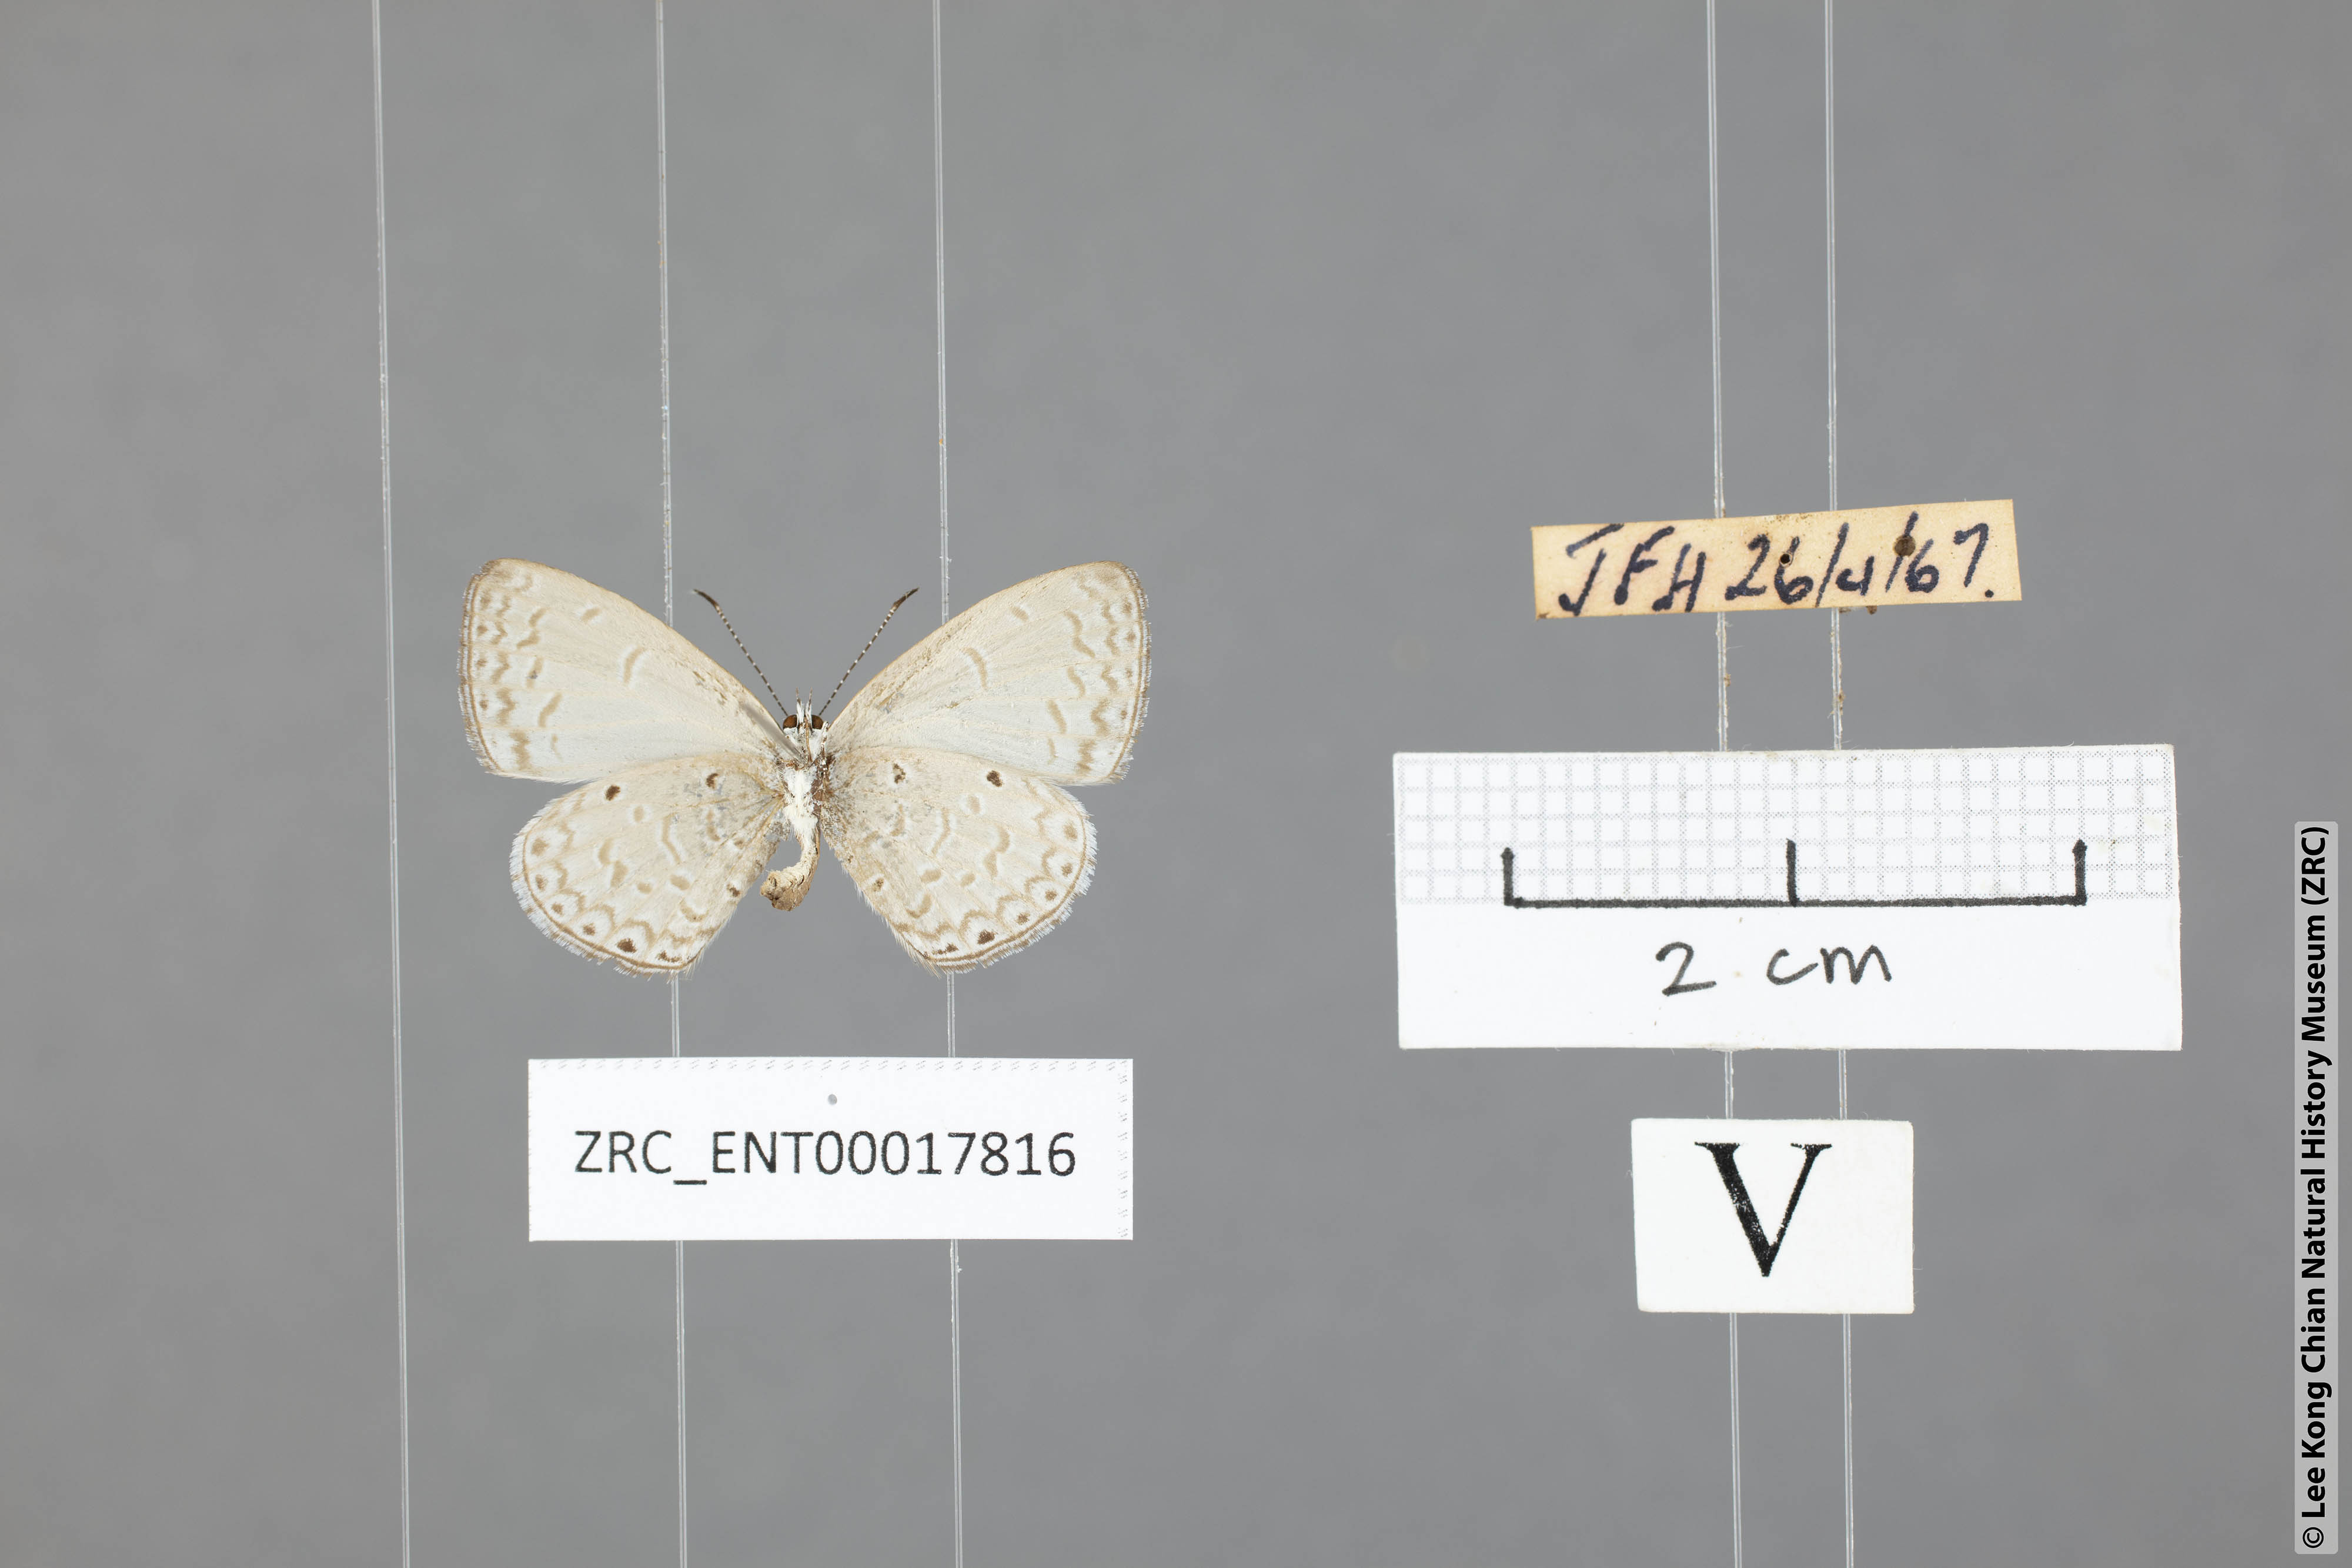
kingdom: Animalia
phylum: Arthropoda
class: Insecta
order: Lepidoptera
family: Lycaenidae
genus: Monodontides
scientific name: Monodontides
